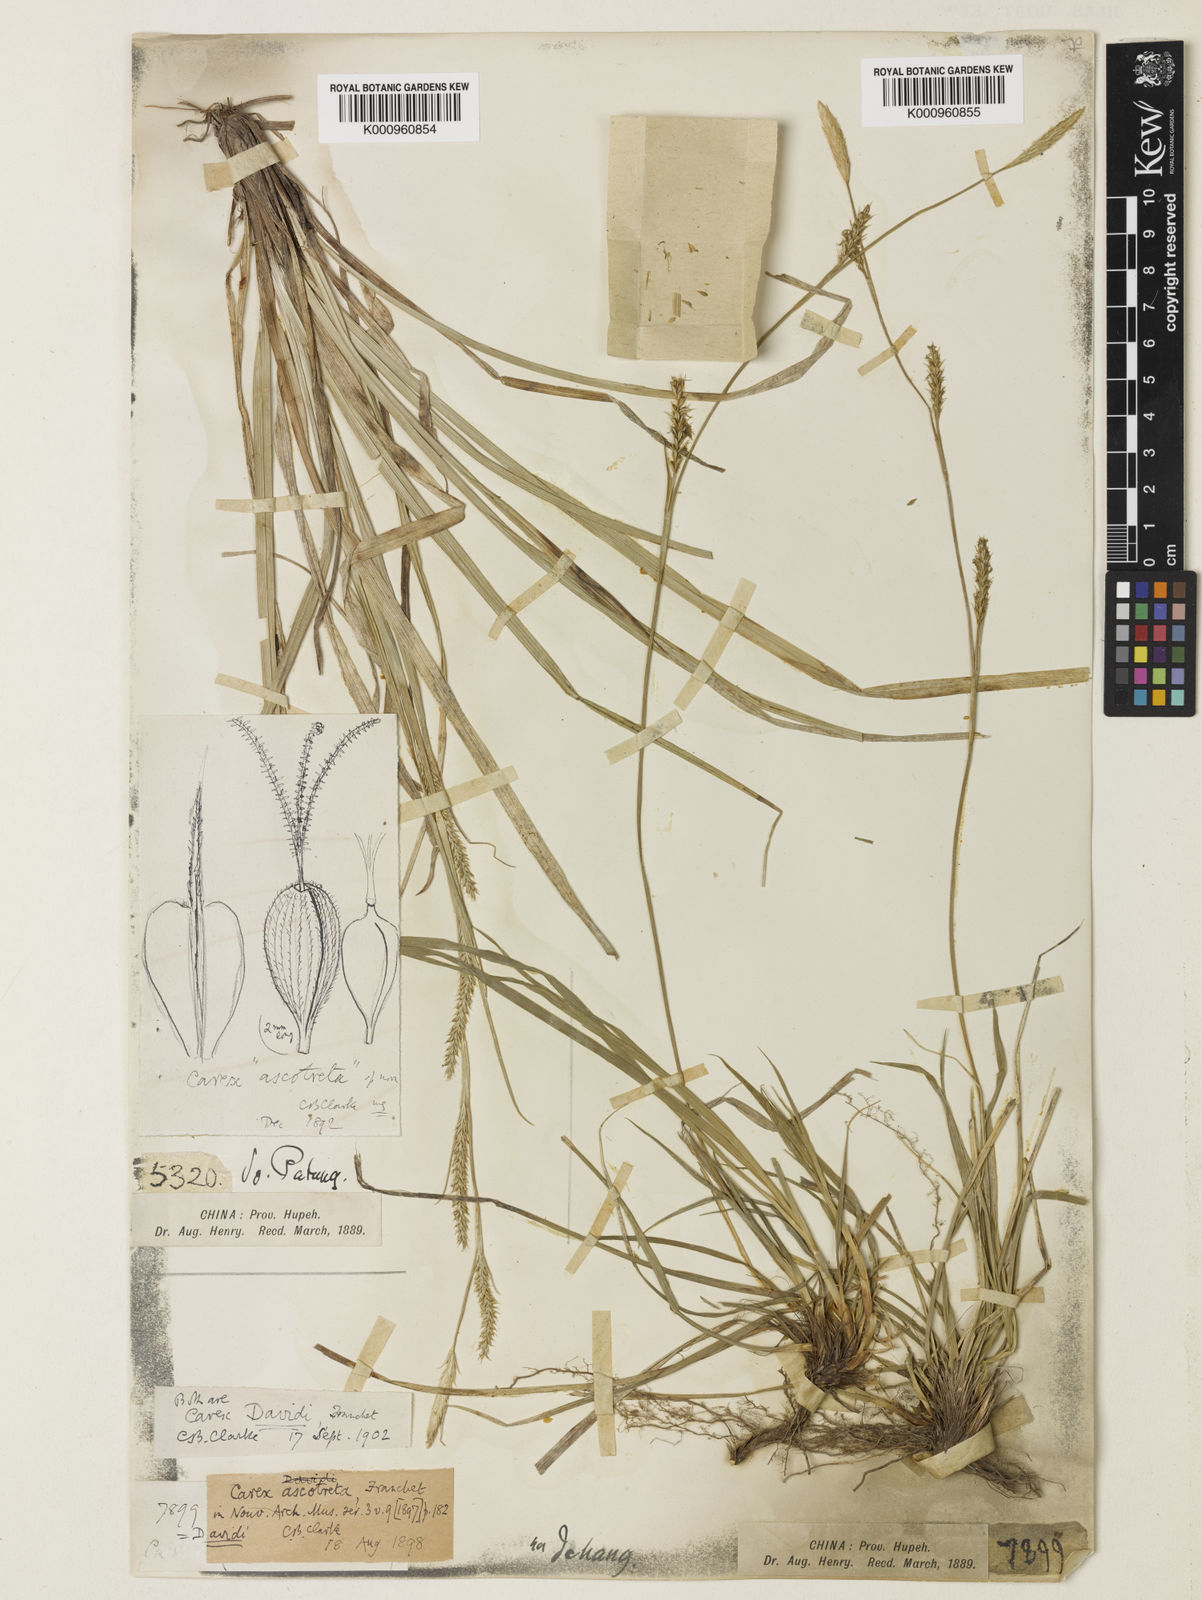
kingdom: Plantae
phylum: Tracheophyta
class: Liliopsida
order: Poales
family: Cyperaceae
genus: Carex
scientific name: Carex davidii
